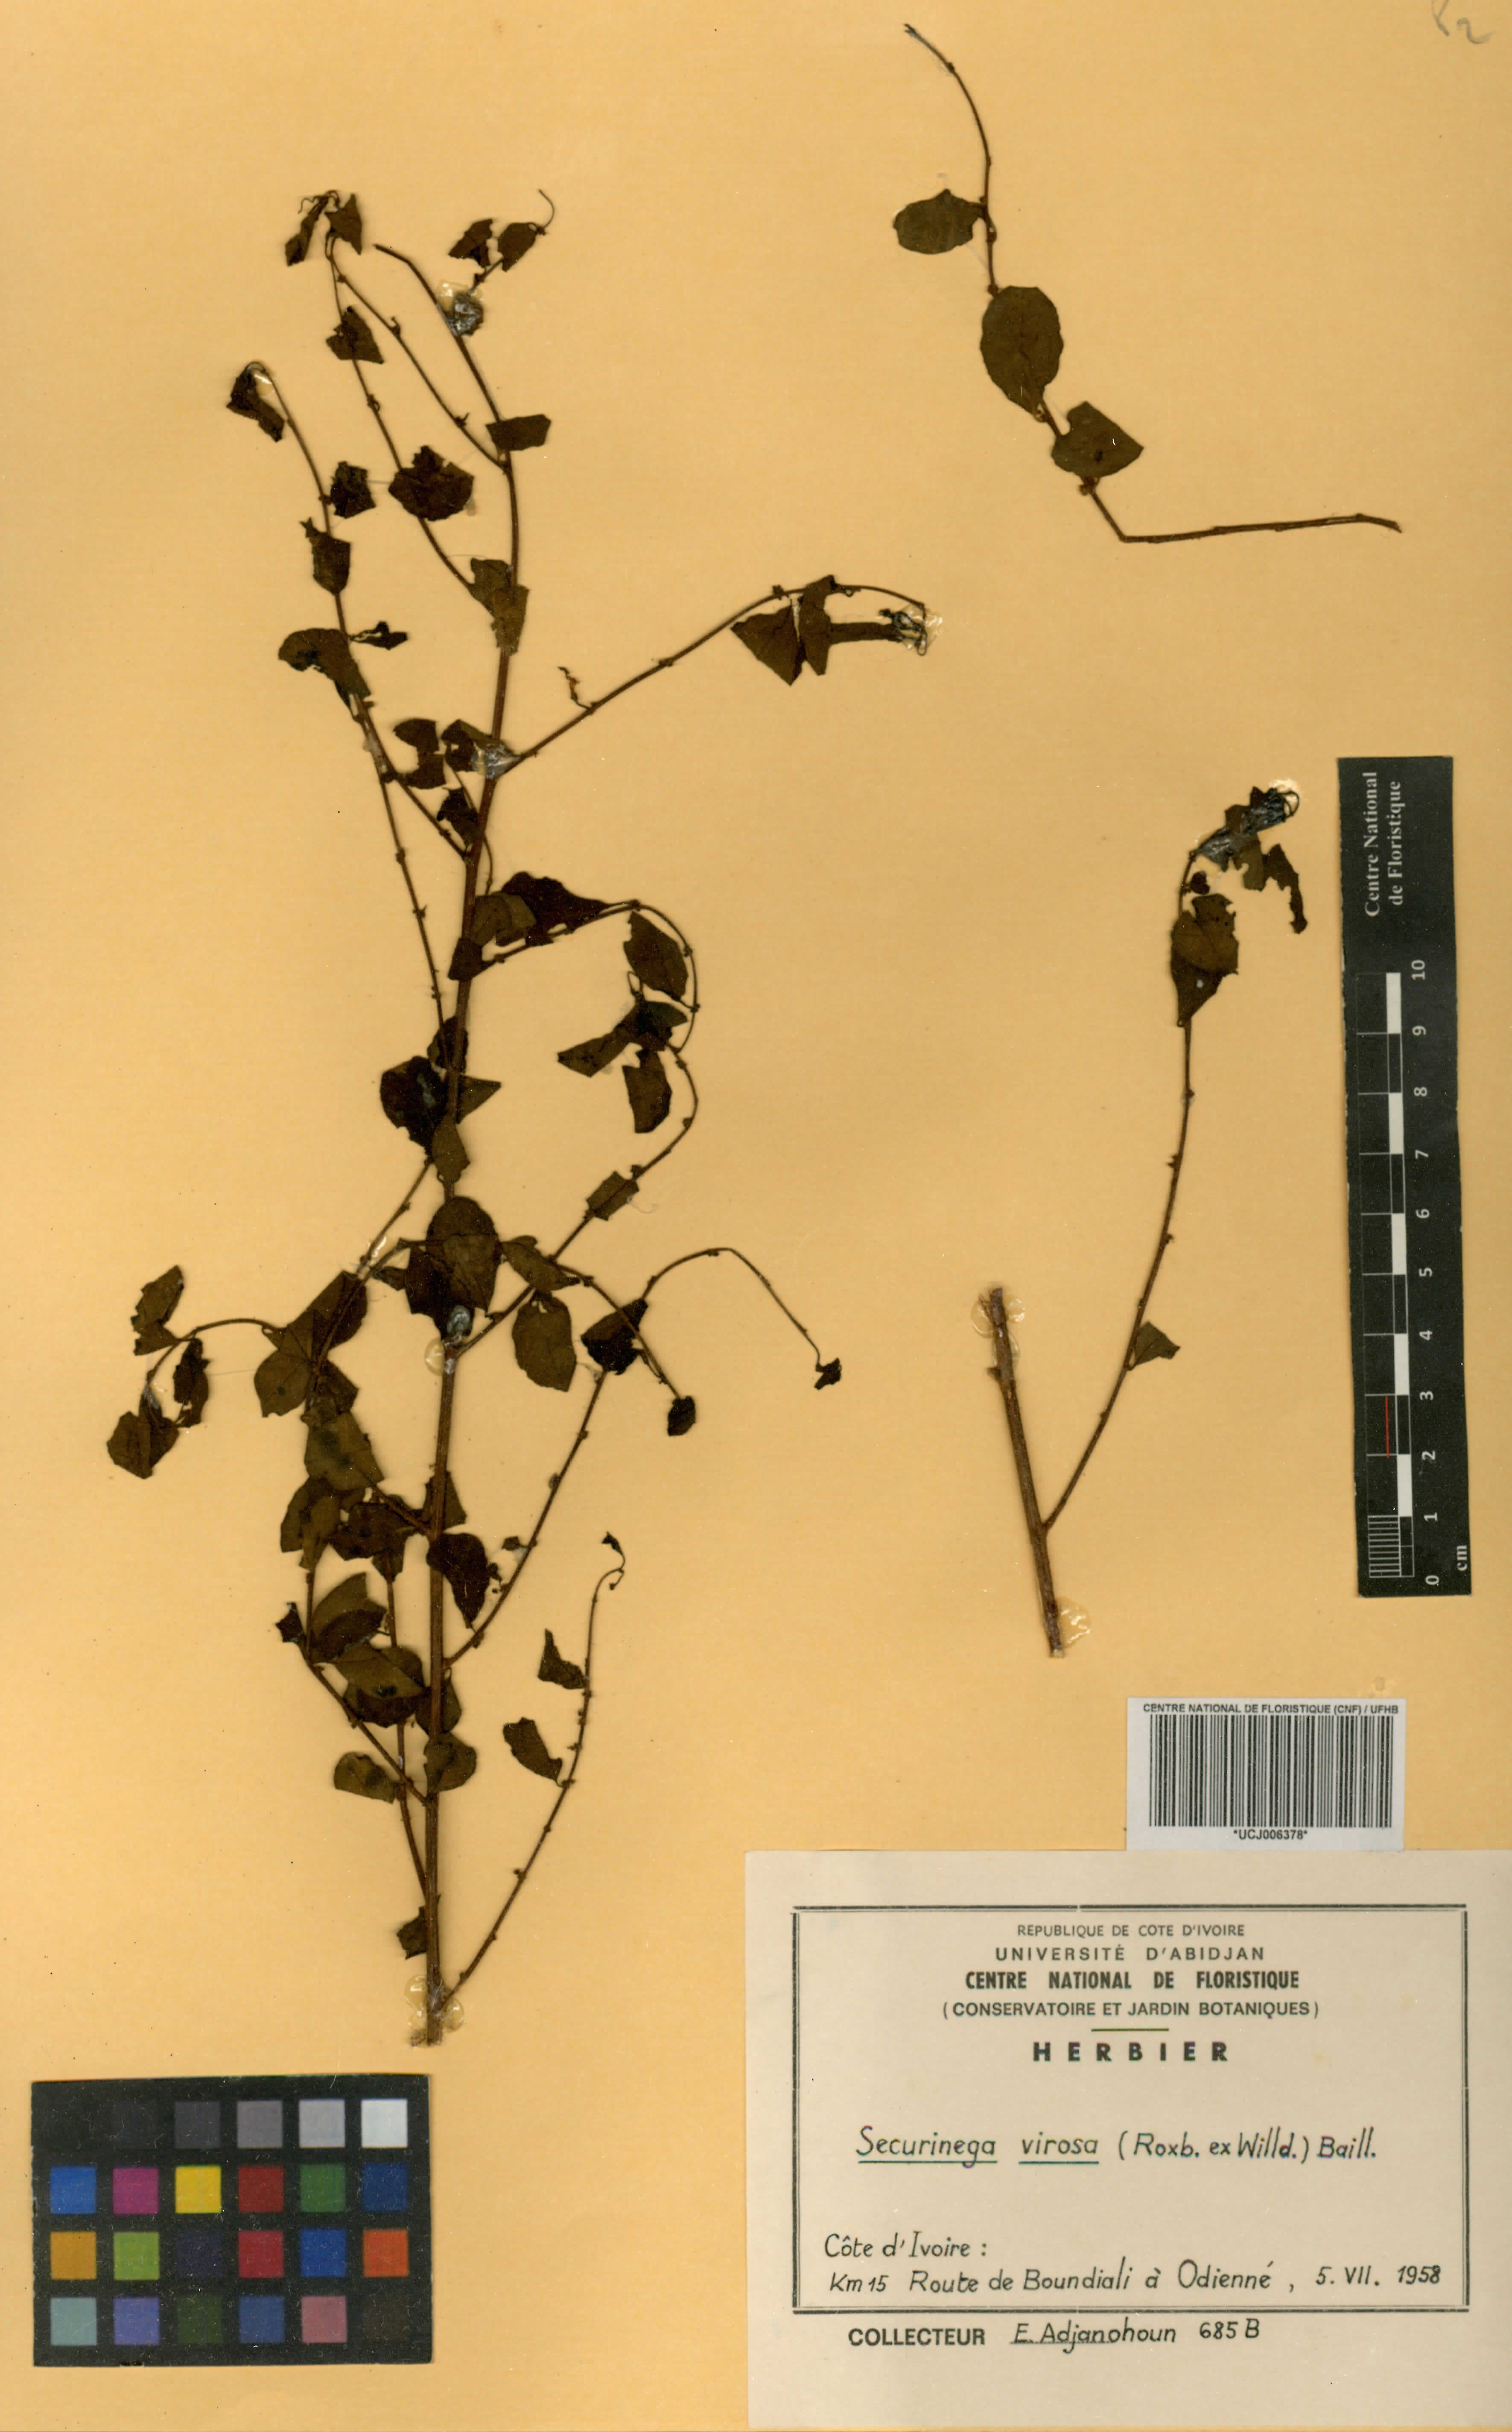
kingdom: Plantae
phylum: Tracheophyta
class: Magnoliopsida
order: Malpighiales
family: Phyllanthaceae
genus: Flueggea
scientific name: Flueggea virosa
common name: Common bushweed
